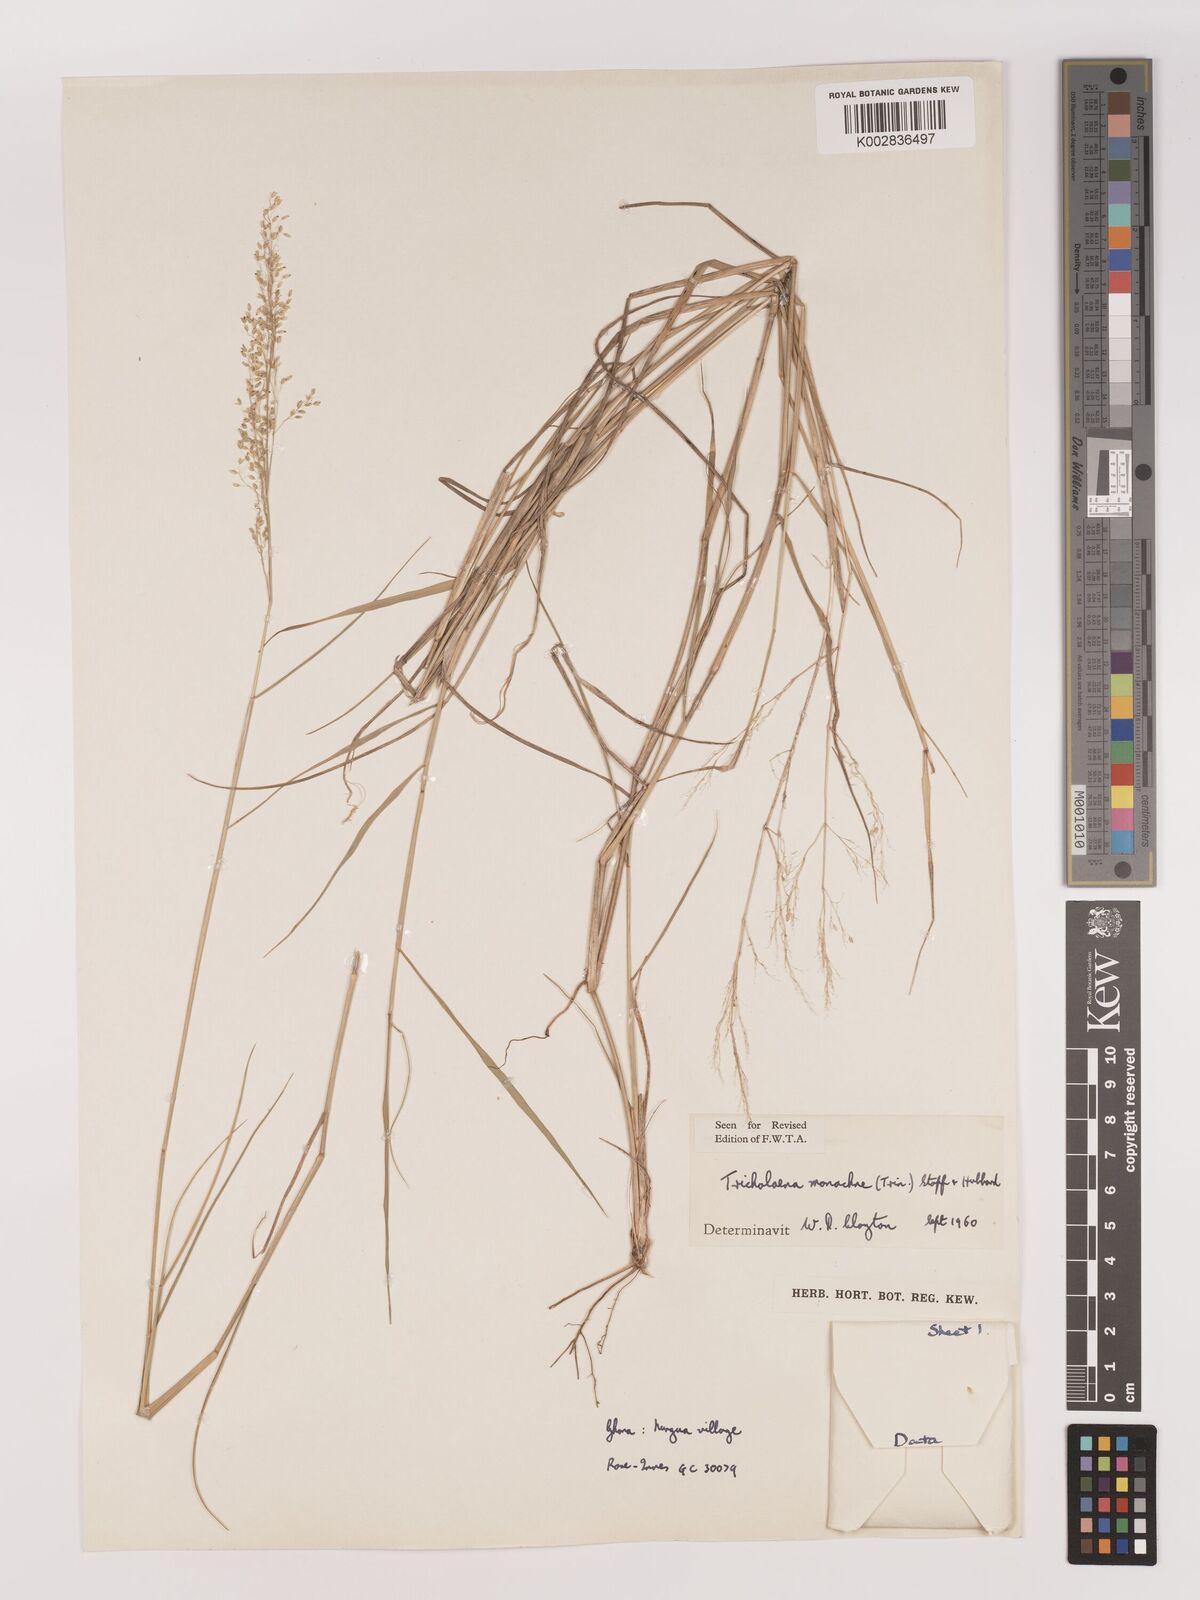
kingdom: Plantae
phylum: Tracheophyta
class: Liliopsida
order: Poales
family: Poaceae
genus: Tricholaena
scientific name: Tricholaena monachne
